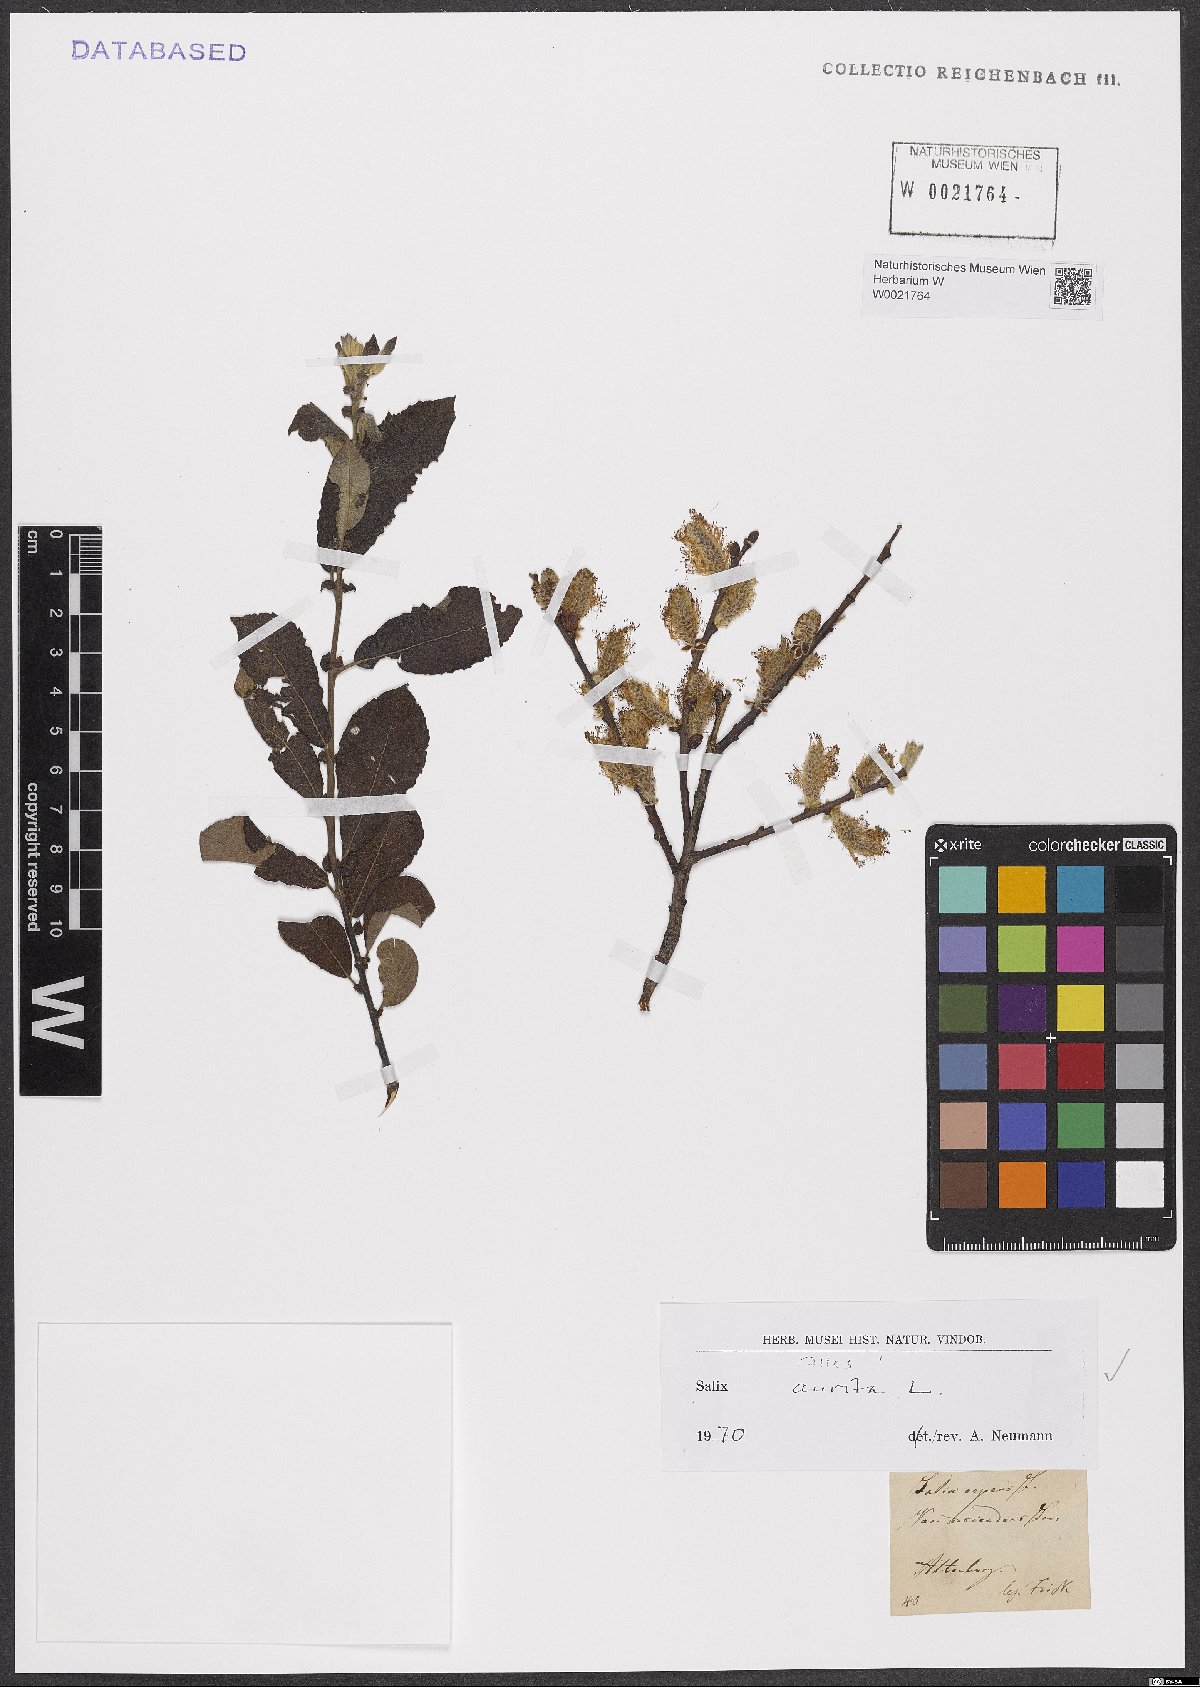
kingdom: Plantae
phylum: Tracheophyta
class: Magnoliopsida
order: Malpighiales
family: Salicaceae
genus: Salix
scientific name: Salix aurita
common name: Eared willow
